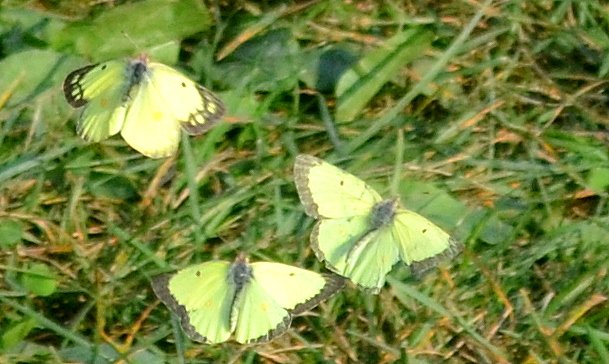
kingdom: Animalia
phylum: Arthropoda
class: Insecta
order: Lepidoptera
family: Pieridae
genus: Colias
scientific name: Colias philodice
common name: Clouded Sulphur
